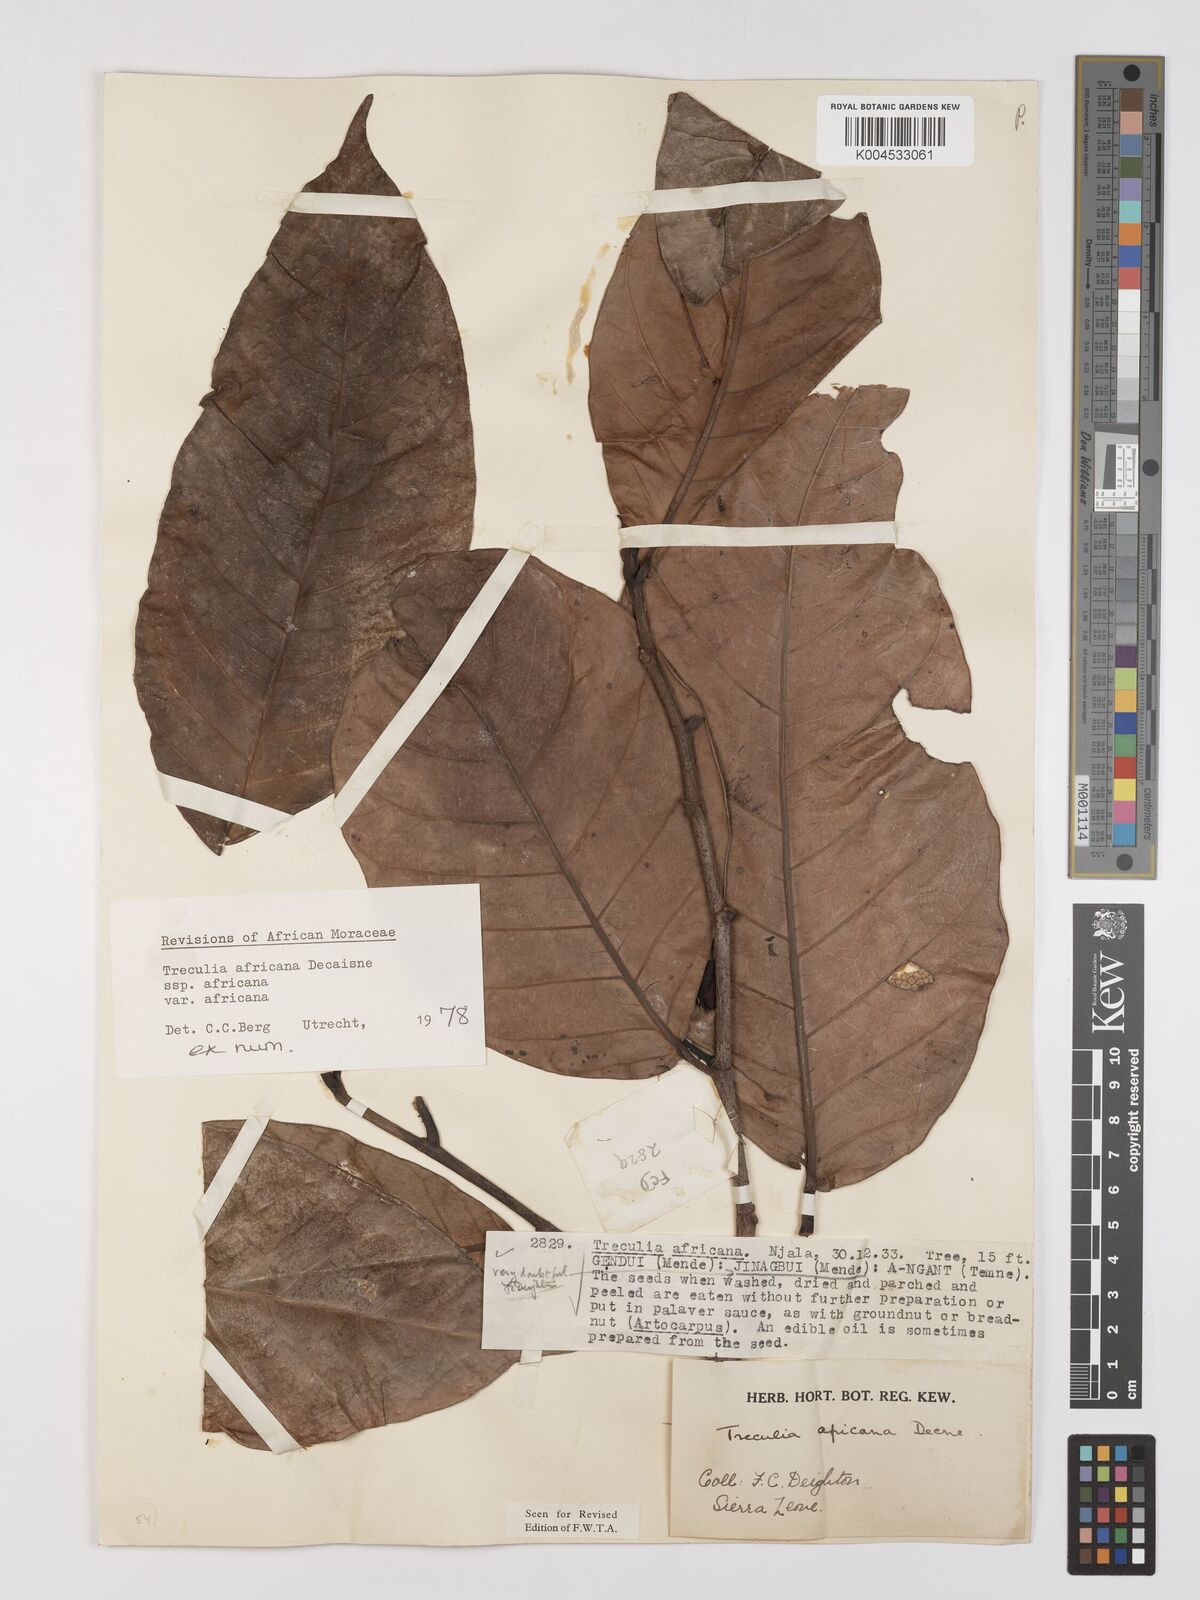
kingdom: Plantae
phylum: Tracheophyta
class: Magnoliopsida
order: Rosales
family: Moraceae
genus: Treculia
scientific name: Treculia africana
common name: African breadfruit
